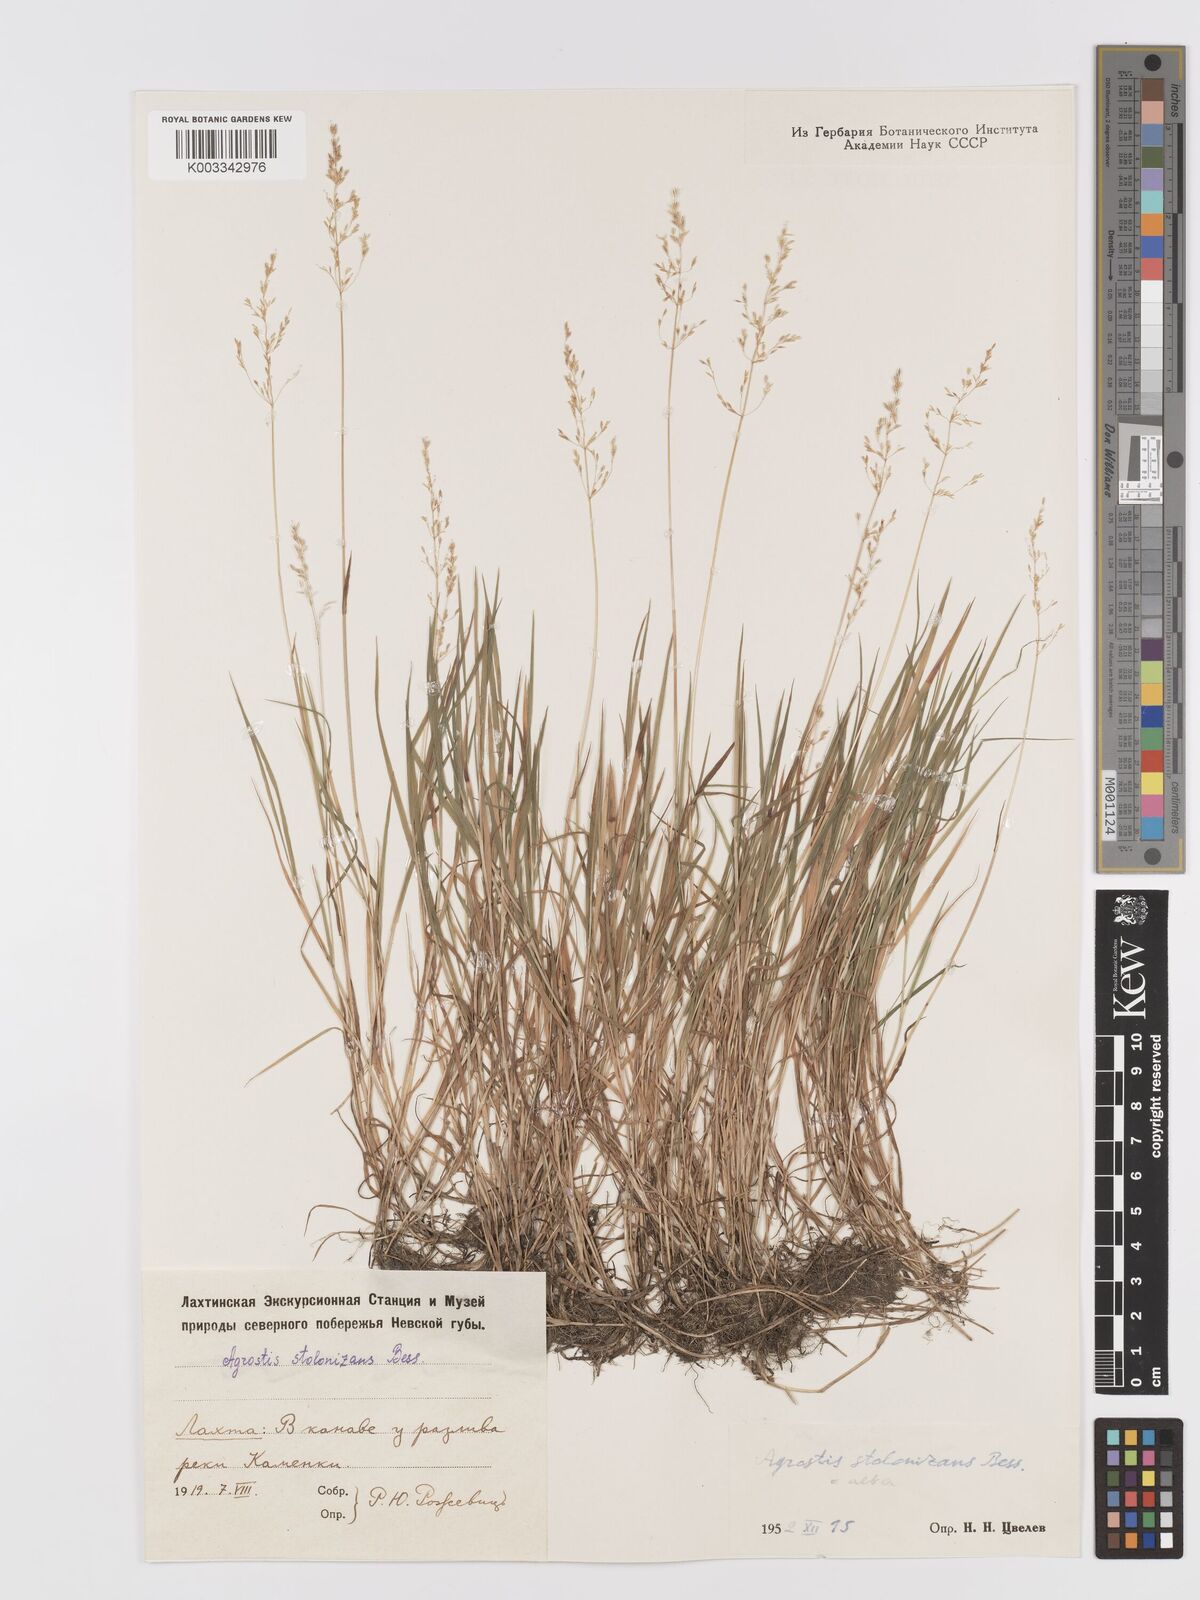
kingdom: Plantae
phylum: Tracheophyta
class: Liliopsida
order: Poales
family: Poaceae
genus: Agrostis
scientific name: Agrostis stolonifera
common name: Creeping bentgrass
